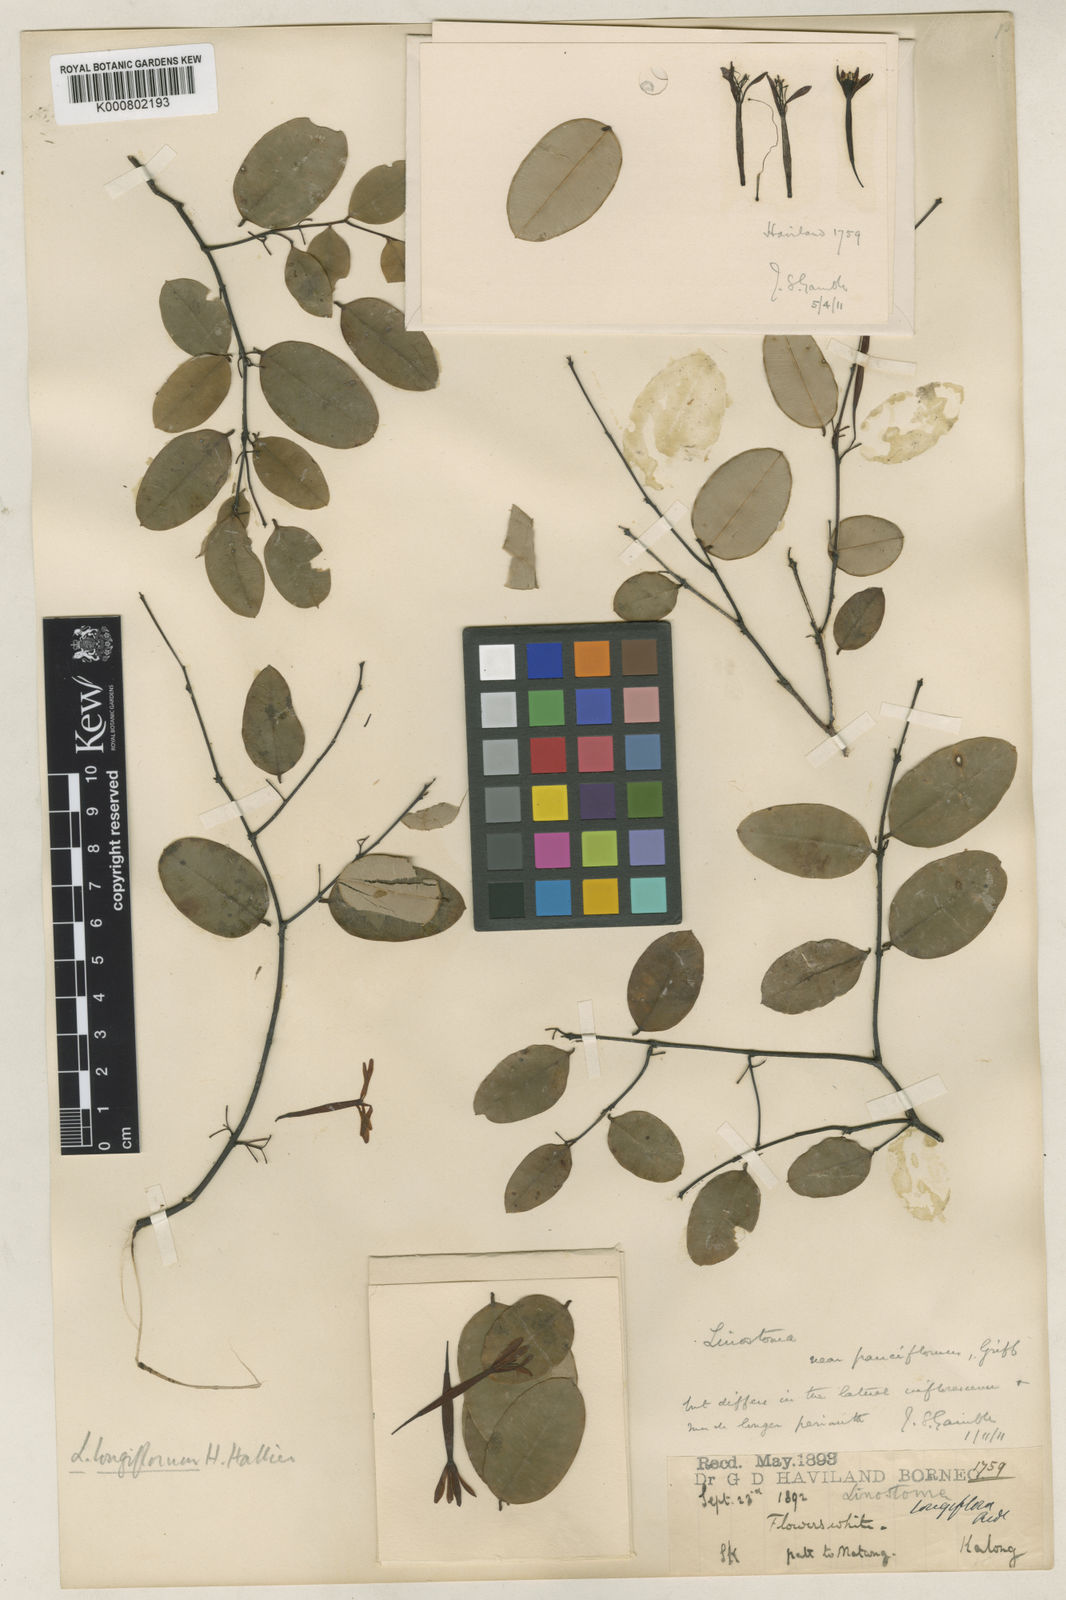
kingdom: Plantae
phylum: Tracheophyta
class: Magnoliopsida
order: Malvales
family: Thymelaeaceae
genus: Linostoma
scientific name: Linostoma longiflorum
